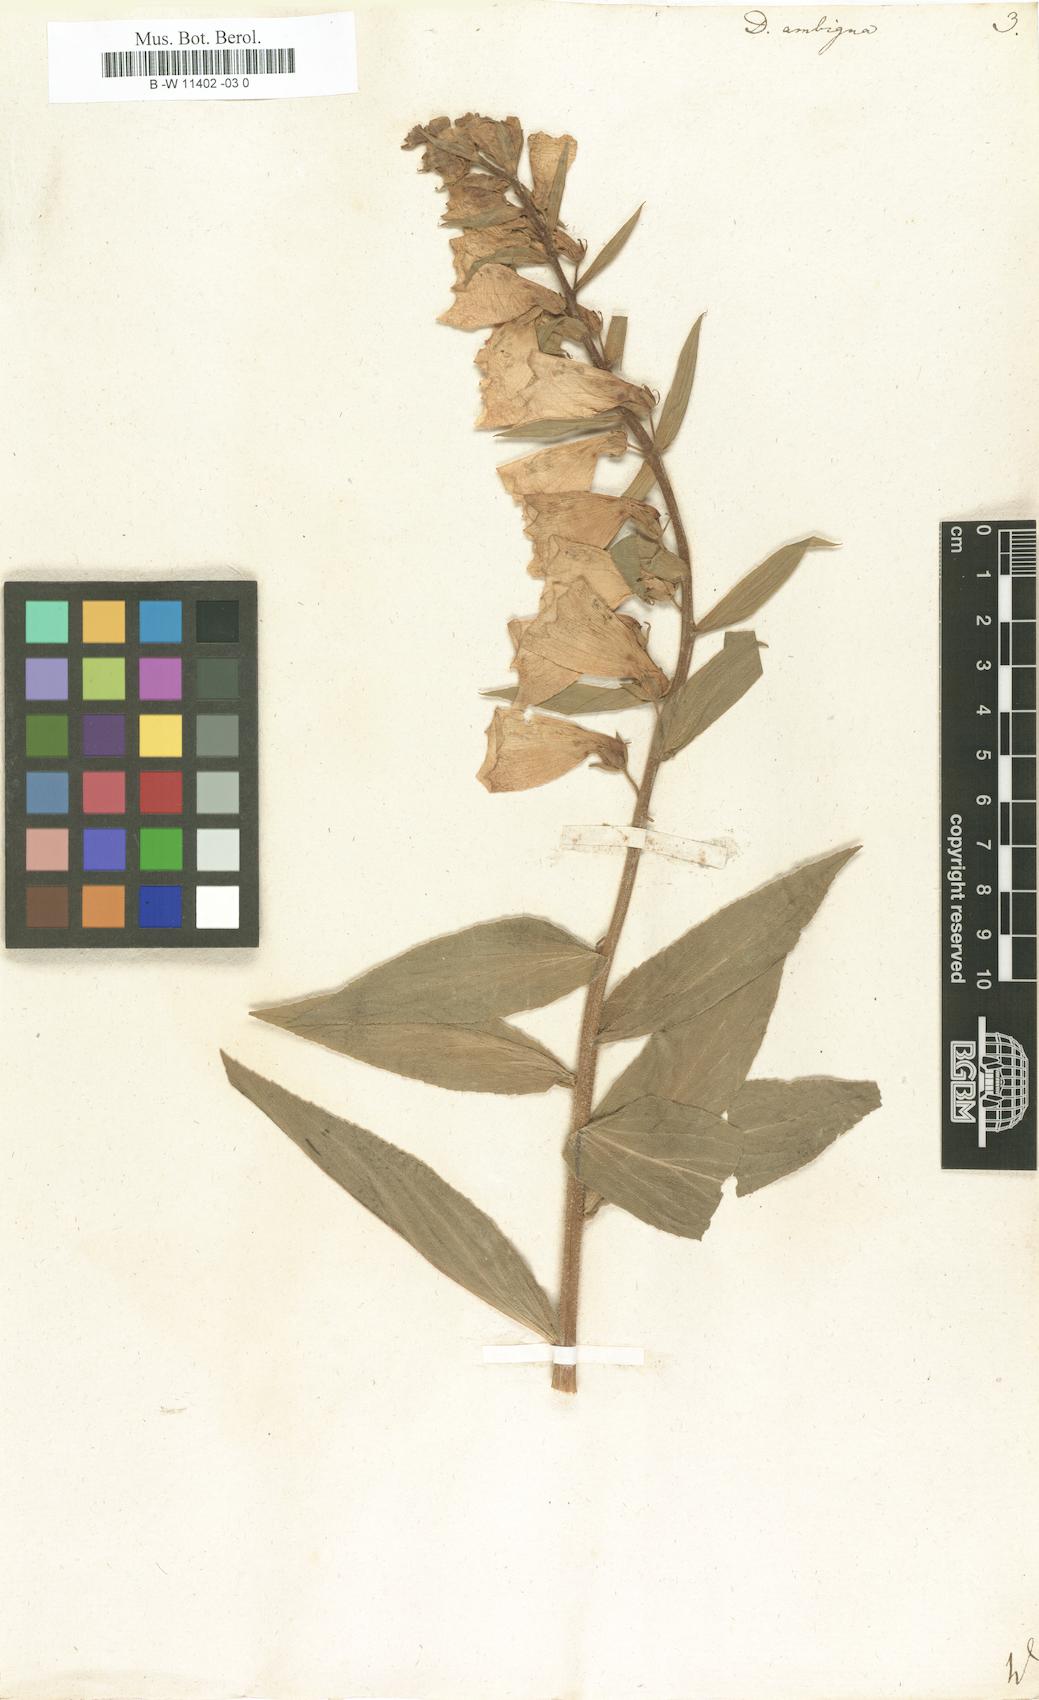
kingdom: Plantae
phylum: Tracheophyta
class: Magnoliopsida
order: Lamiales
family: Plantaginaceae
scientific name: Plantaginaceae
